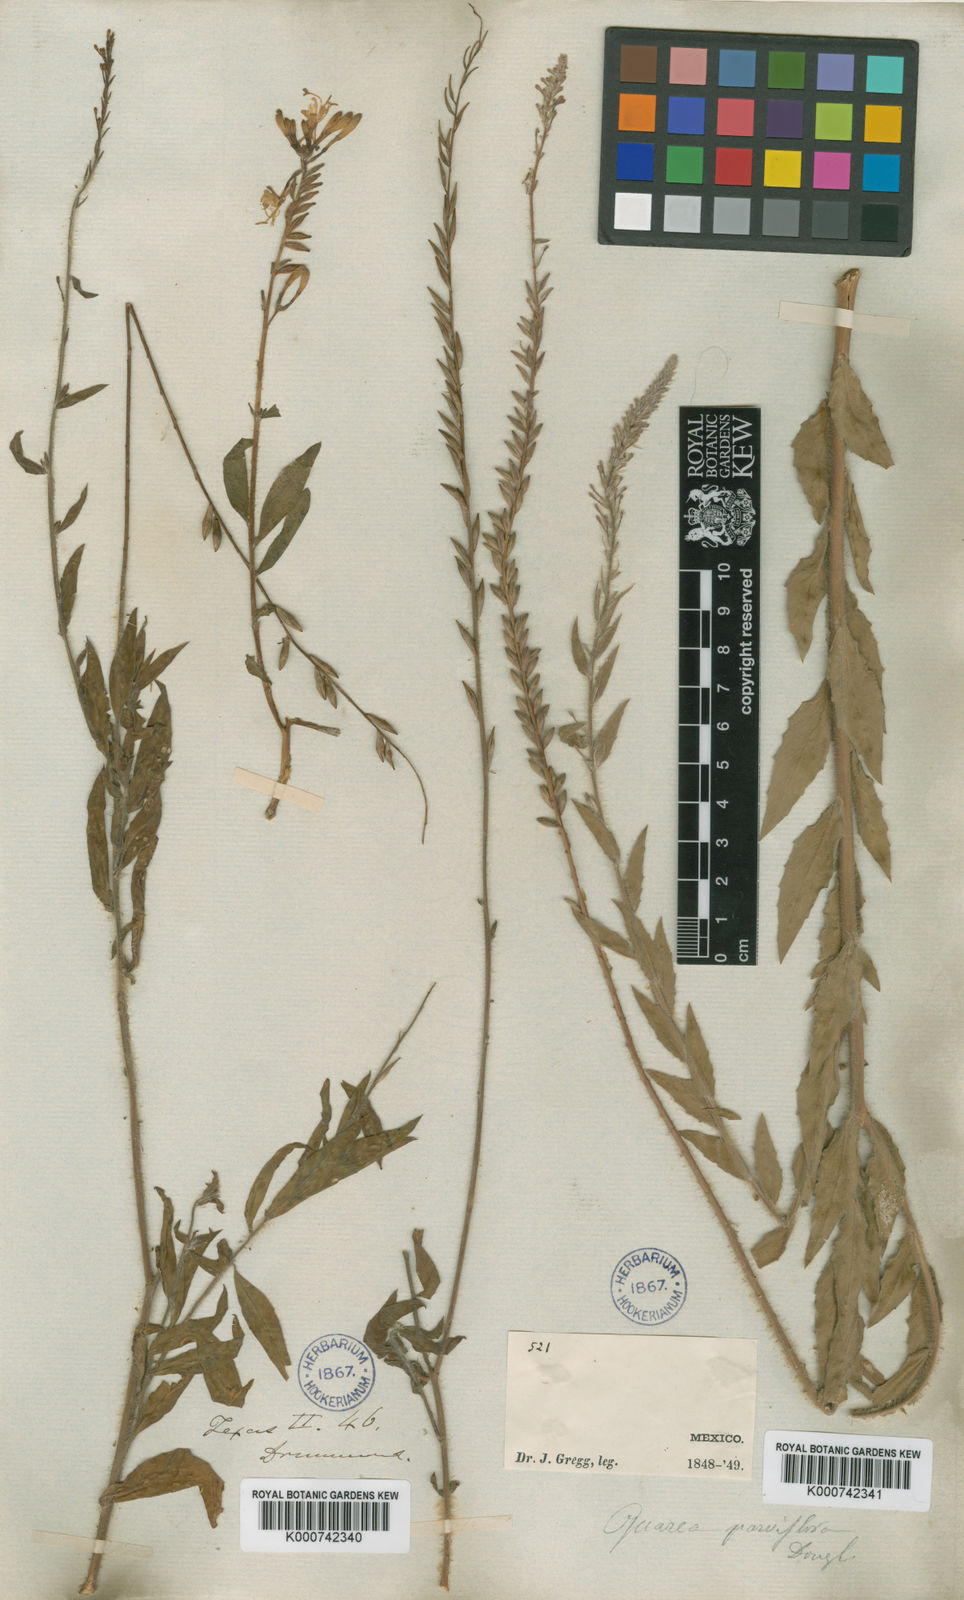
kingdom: Plantae
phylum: Tracheophyta
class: Magnoliopsida
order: Myrtales
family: Onagraceae
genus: Oenothera
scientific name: Oenothera
